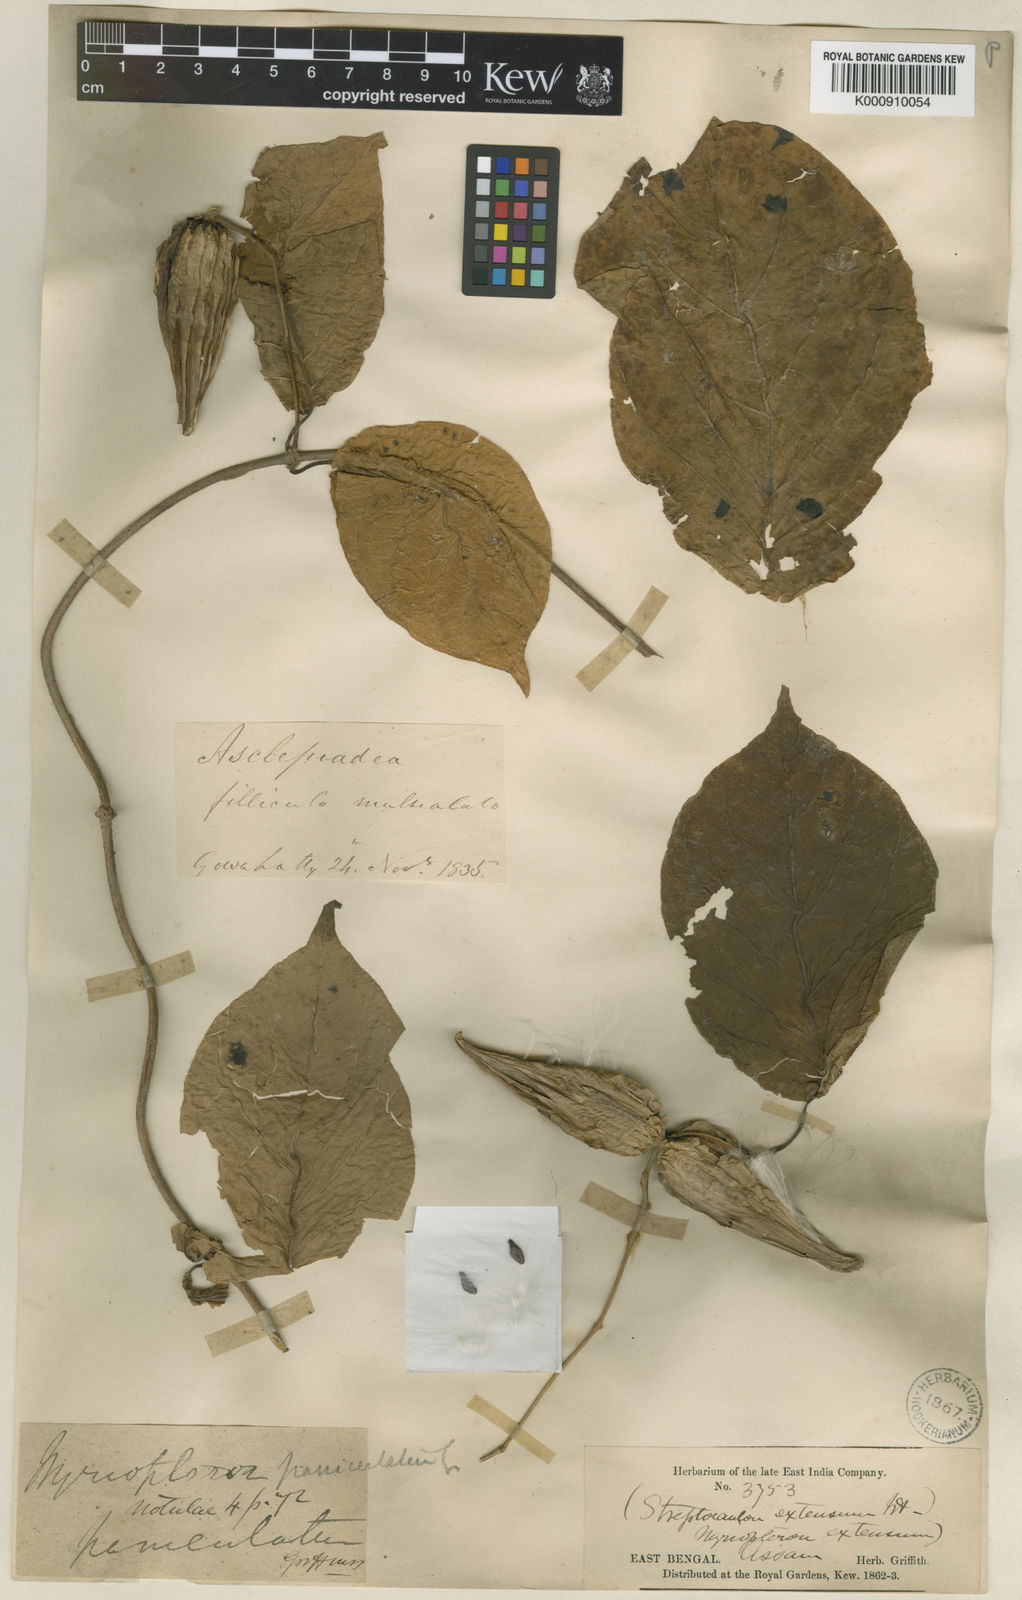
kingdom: Plantae
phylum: Tracheophyta
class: Magnoliopsida
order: Gentianales
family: Apocynaceae
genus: Myriopteron
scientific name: Myriopteron extensum
